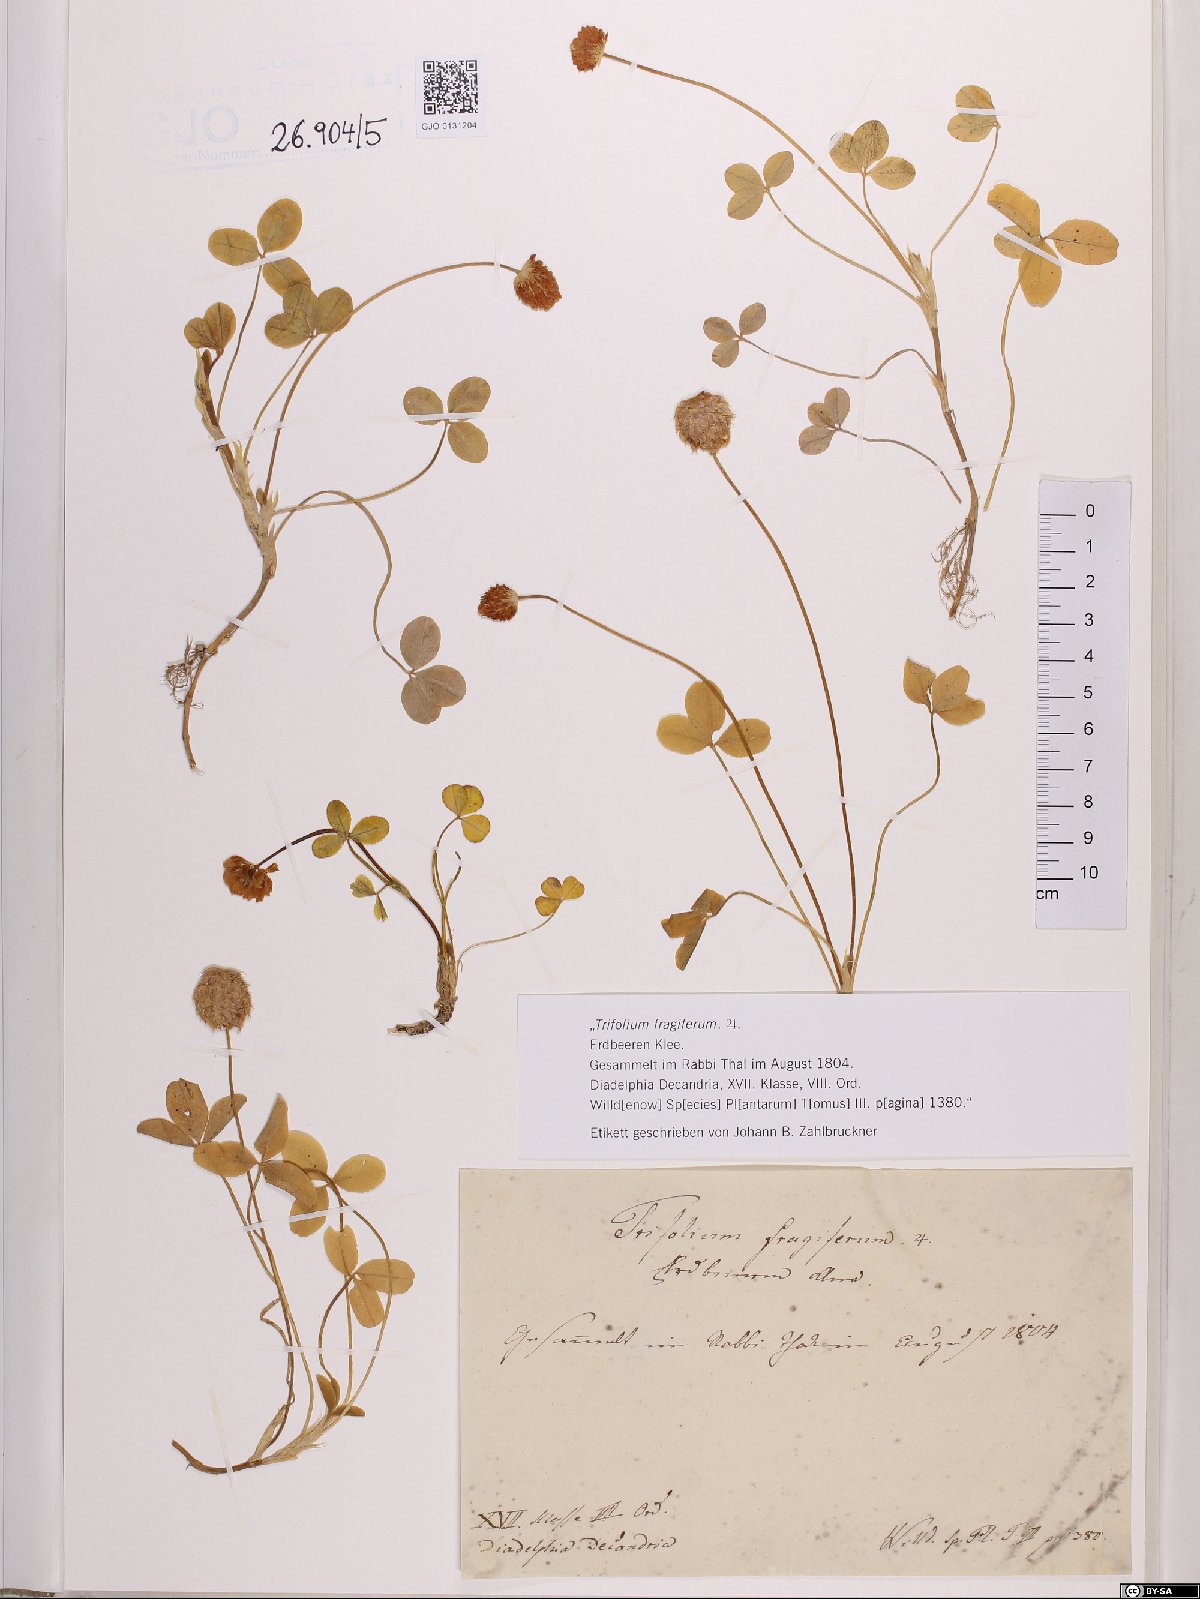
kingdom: Plantae
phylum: Tracheophyta
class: Magnoliopsida
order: Fabales
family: Fabaceae
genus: Trifolium
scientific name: Trifolium fragiferum
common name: Strawberry clover
